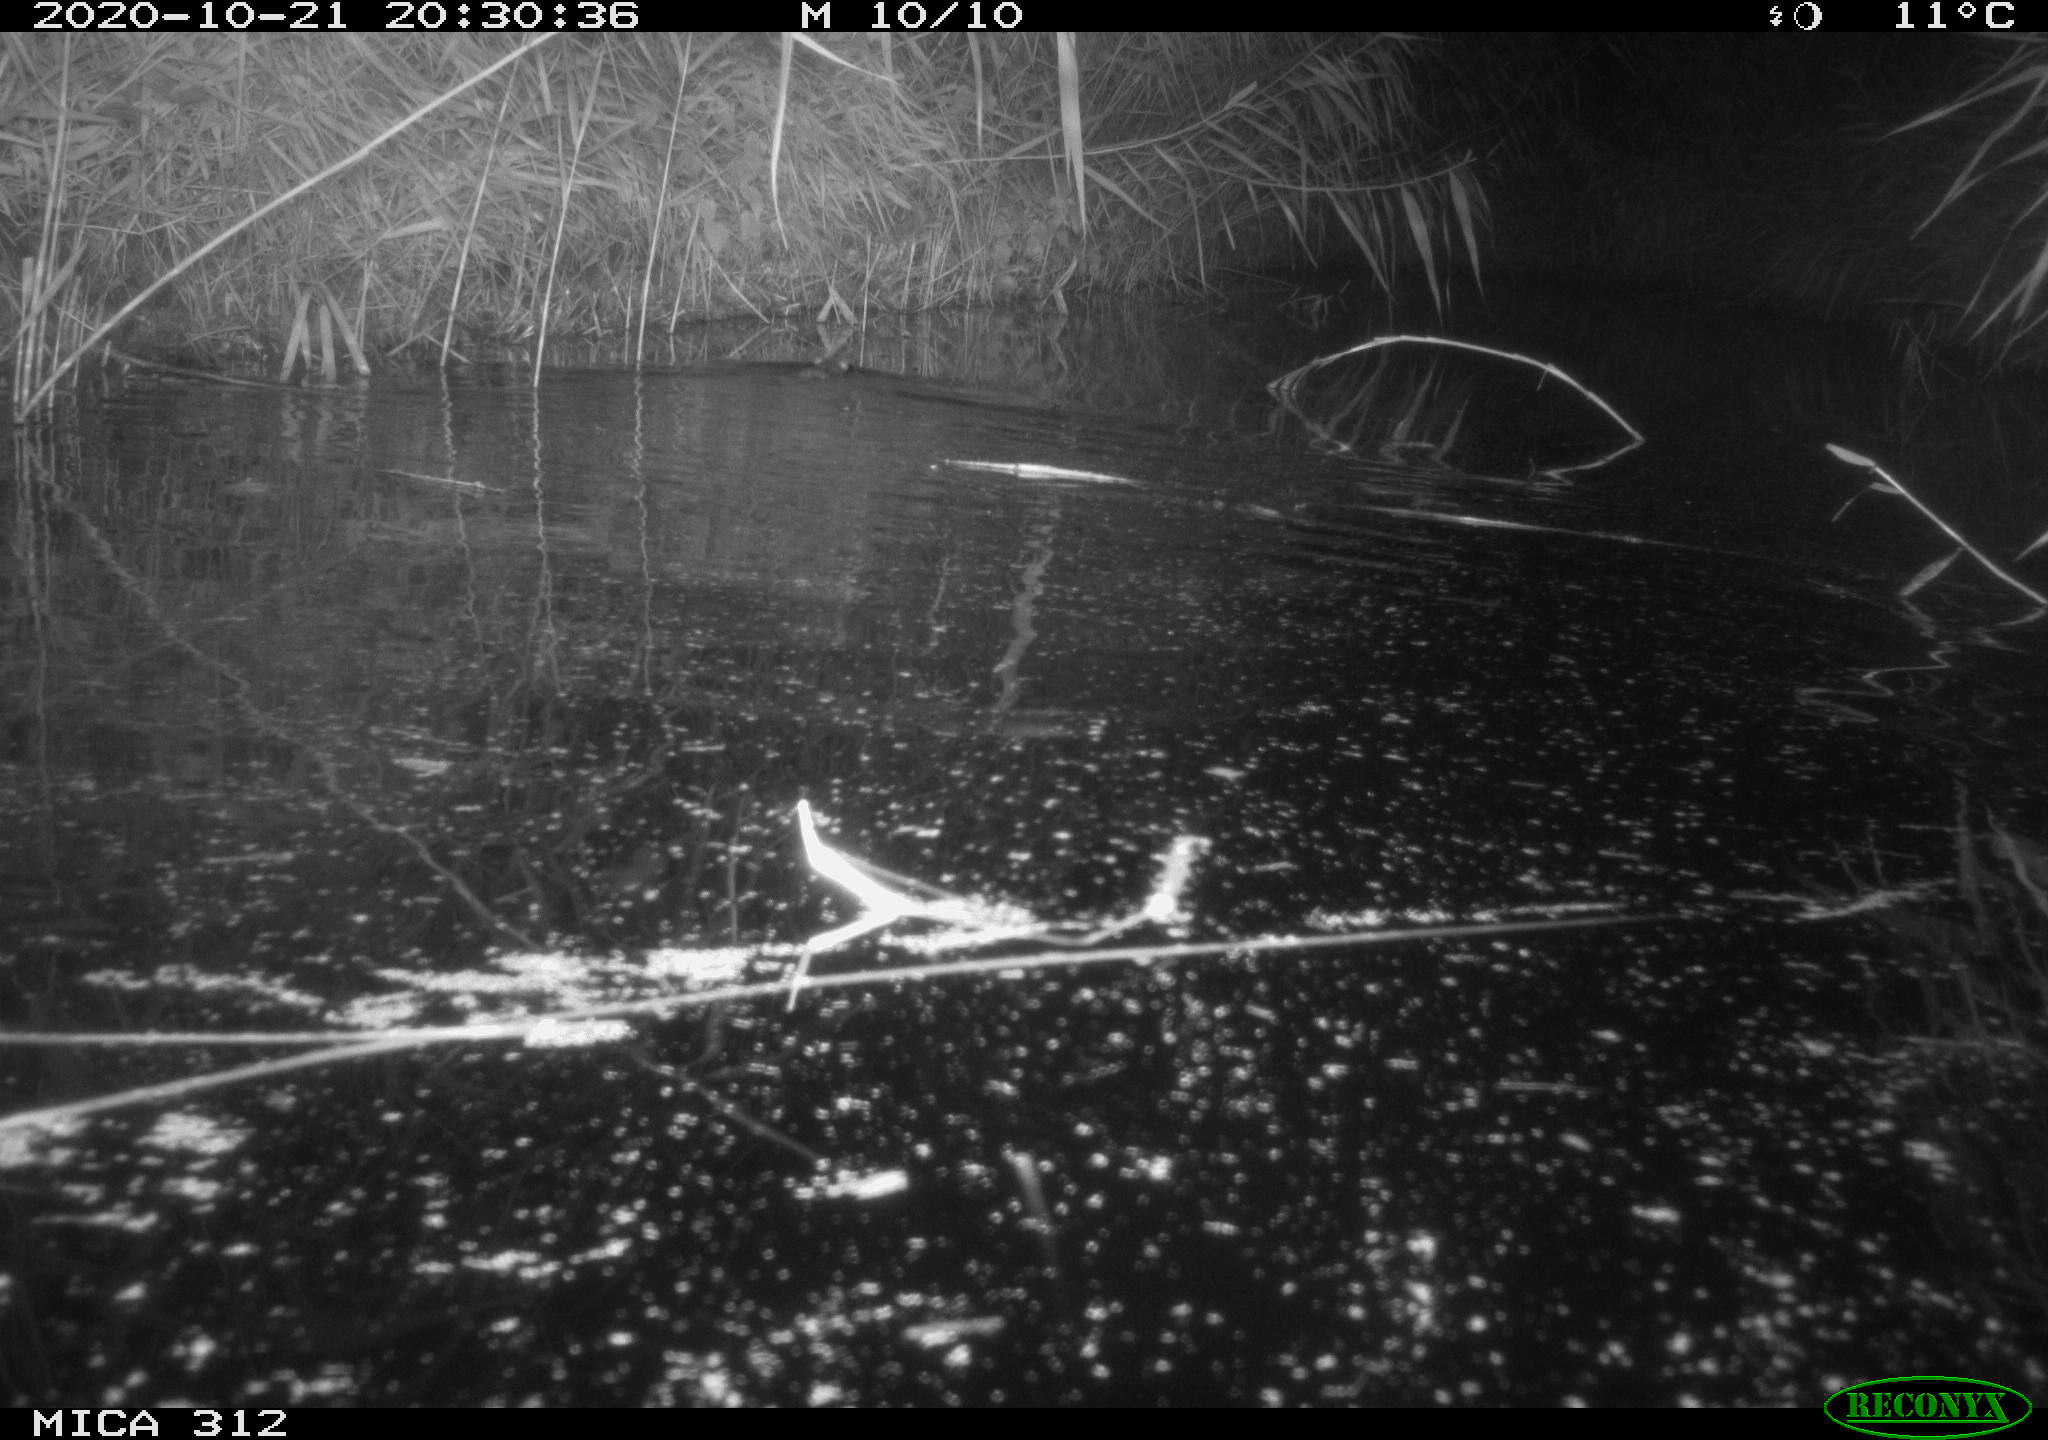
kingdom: Animalia
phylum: Chordata
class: Mammalia
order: Rodentia
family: Muridae
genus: Rattus
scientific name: Rattus norvegicus
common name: Brown rat
